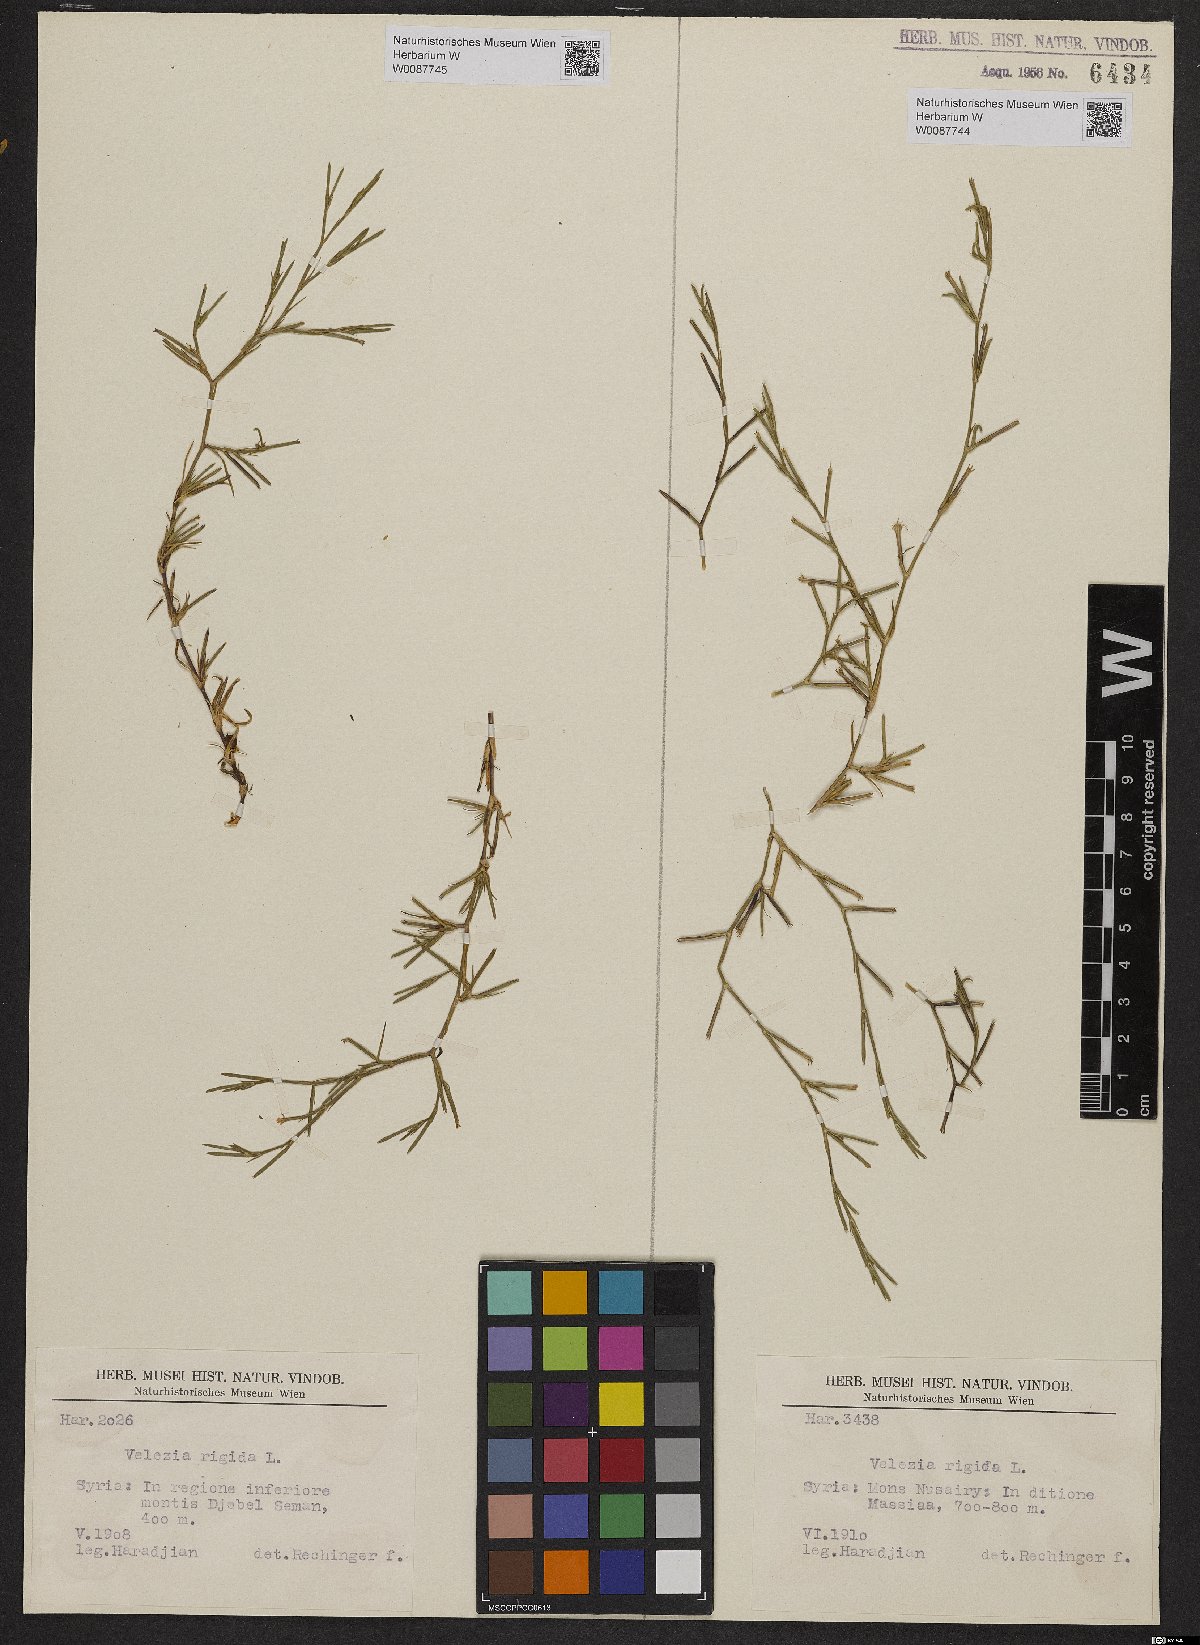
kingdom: Plantae
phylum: Tracheophyta
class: Magnoliopsida
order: Caryophyllales
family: Caryophyllaceae
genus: Dianthus
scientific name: Dianthus nudiflorus
